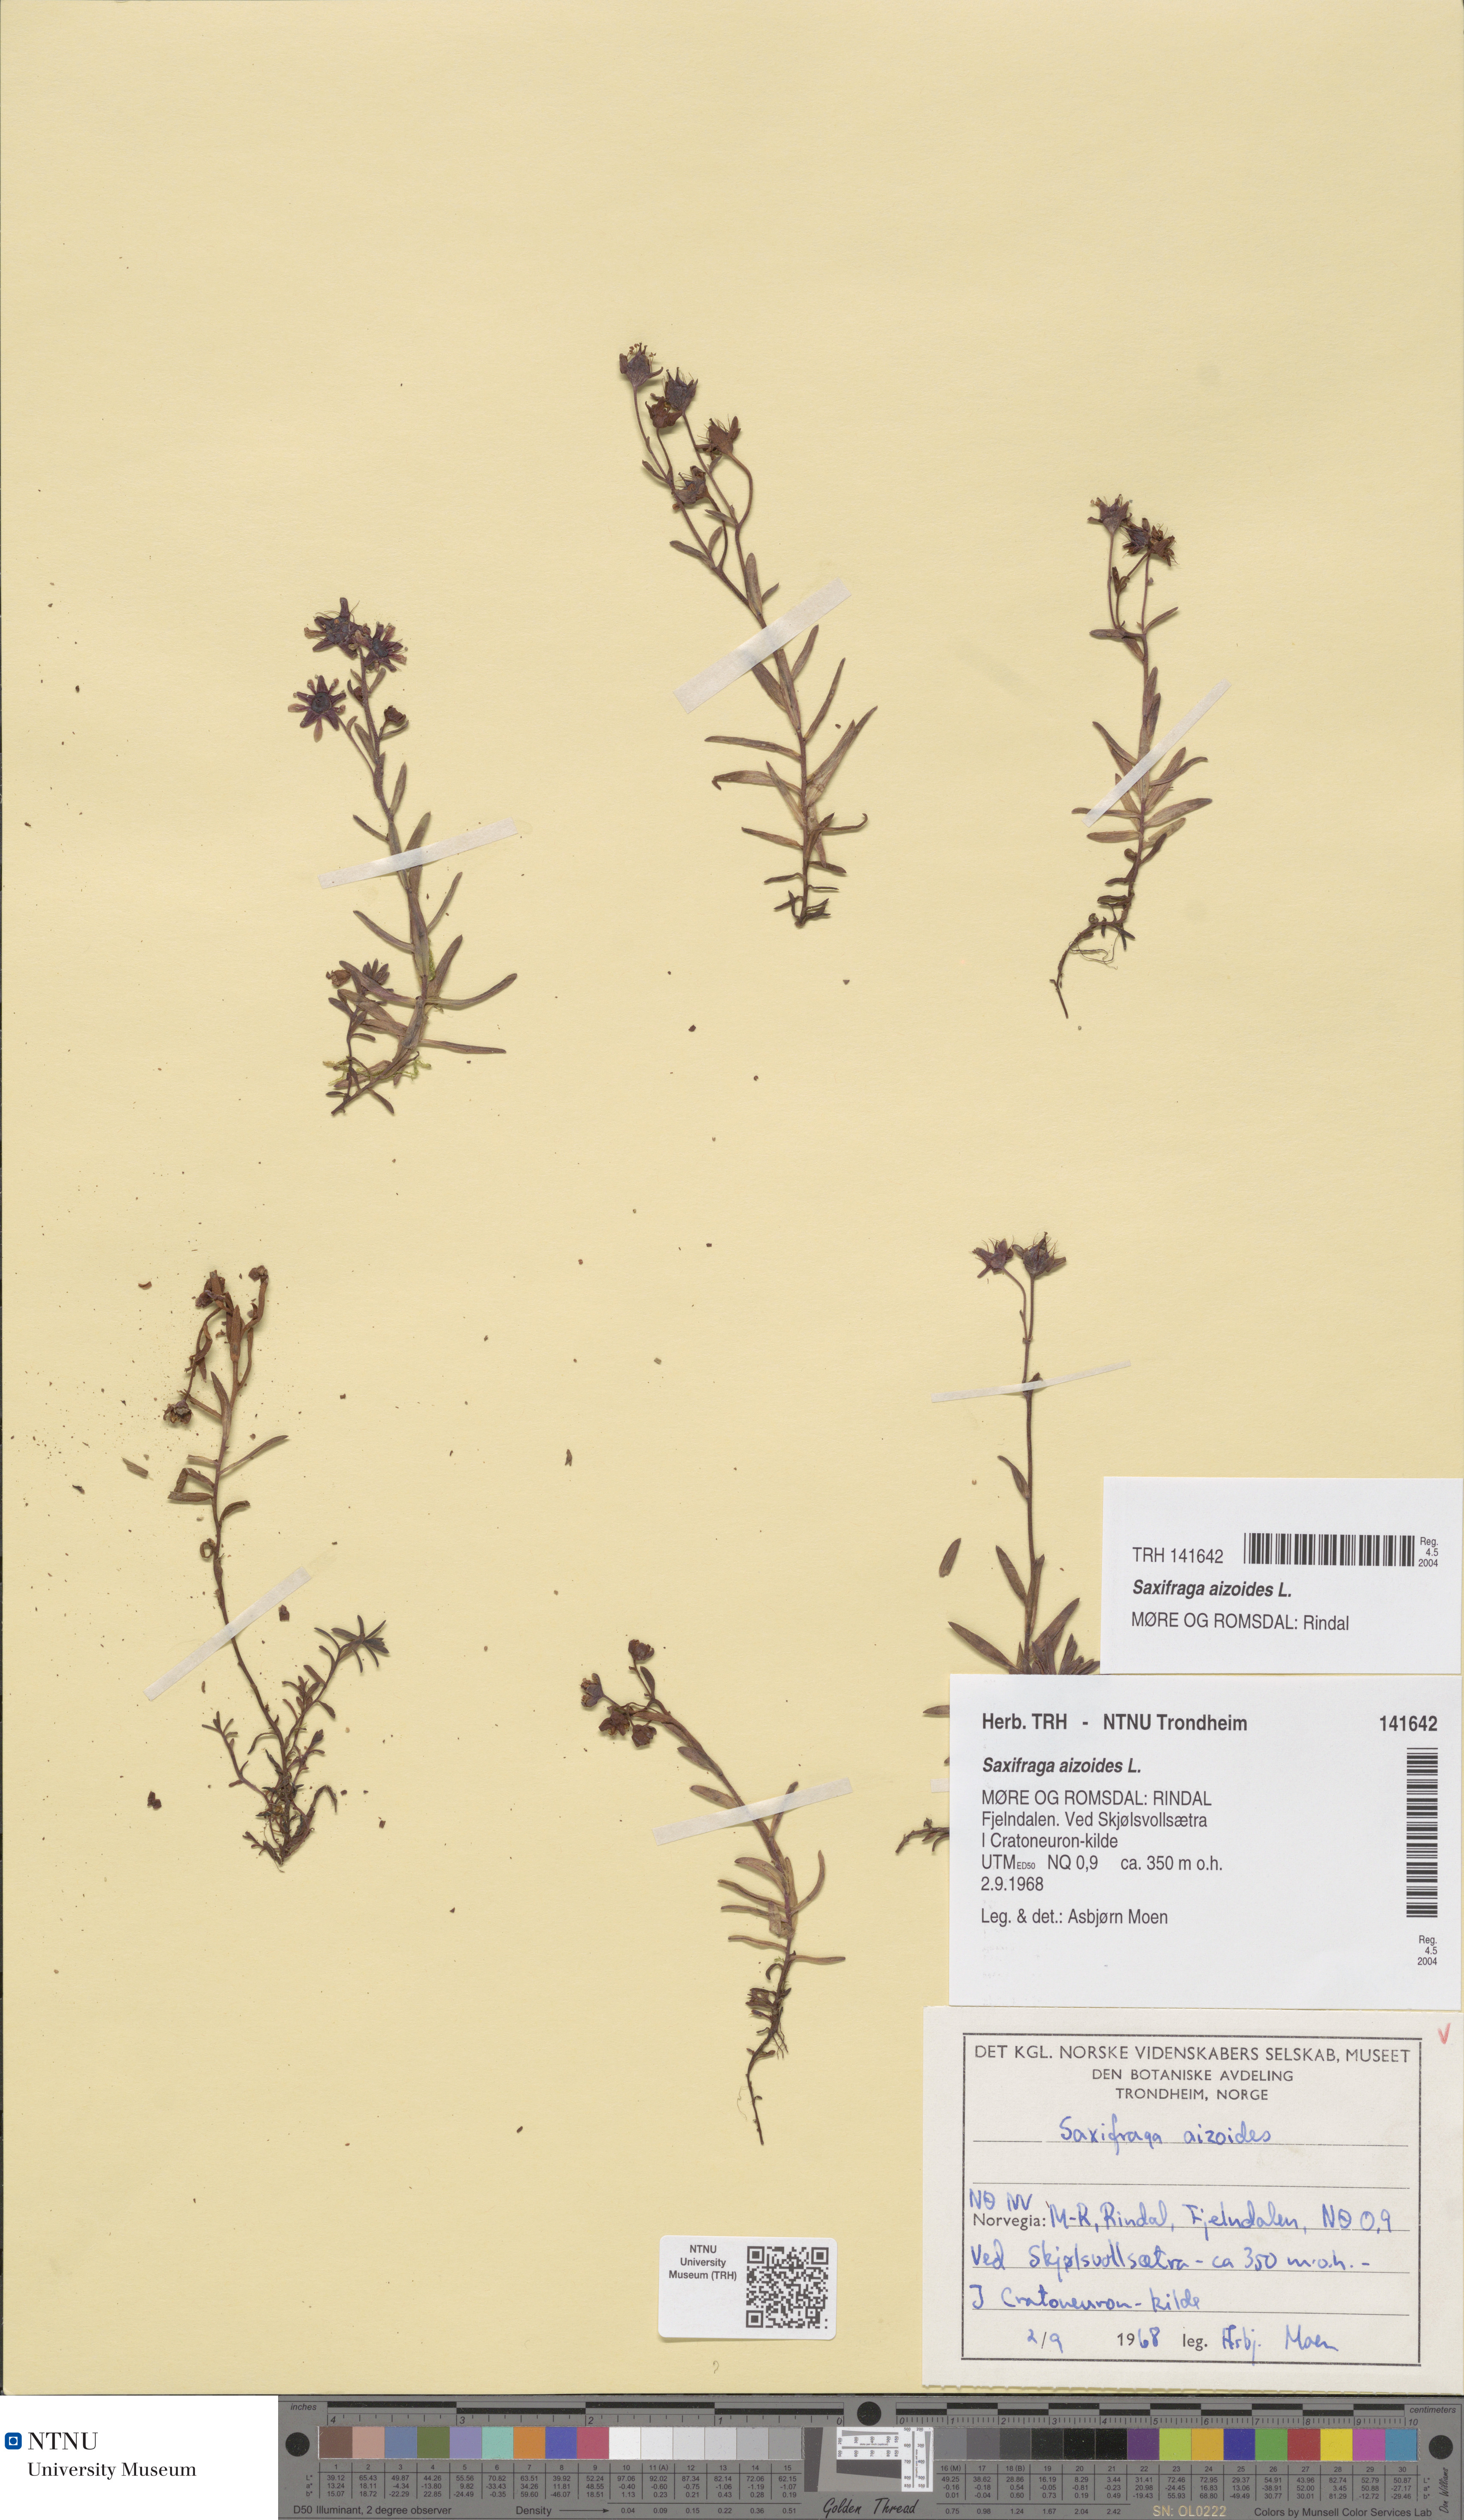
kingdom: Plantae
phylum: Tracheophyta
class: Magnoliopsida
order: Saxifragales
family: Saxifragaceae
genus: Saxifraga
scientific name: Saxifraga aizoides
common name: Yellow mountain saxifrage
